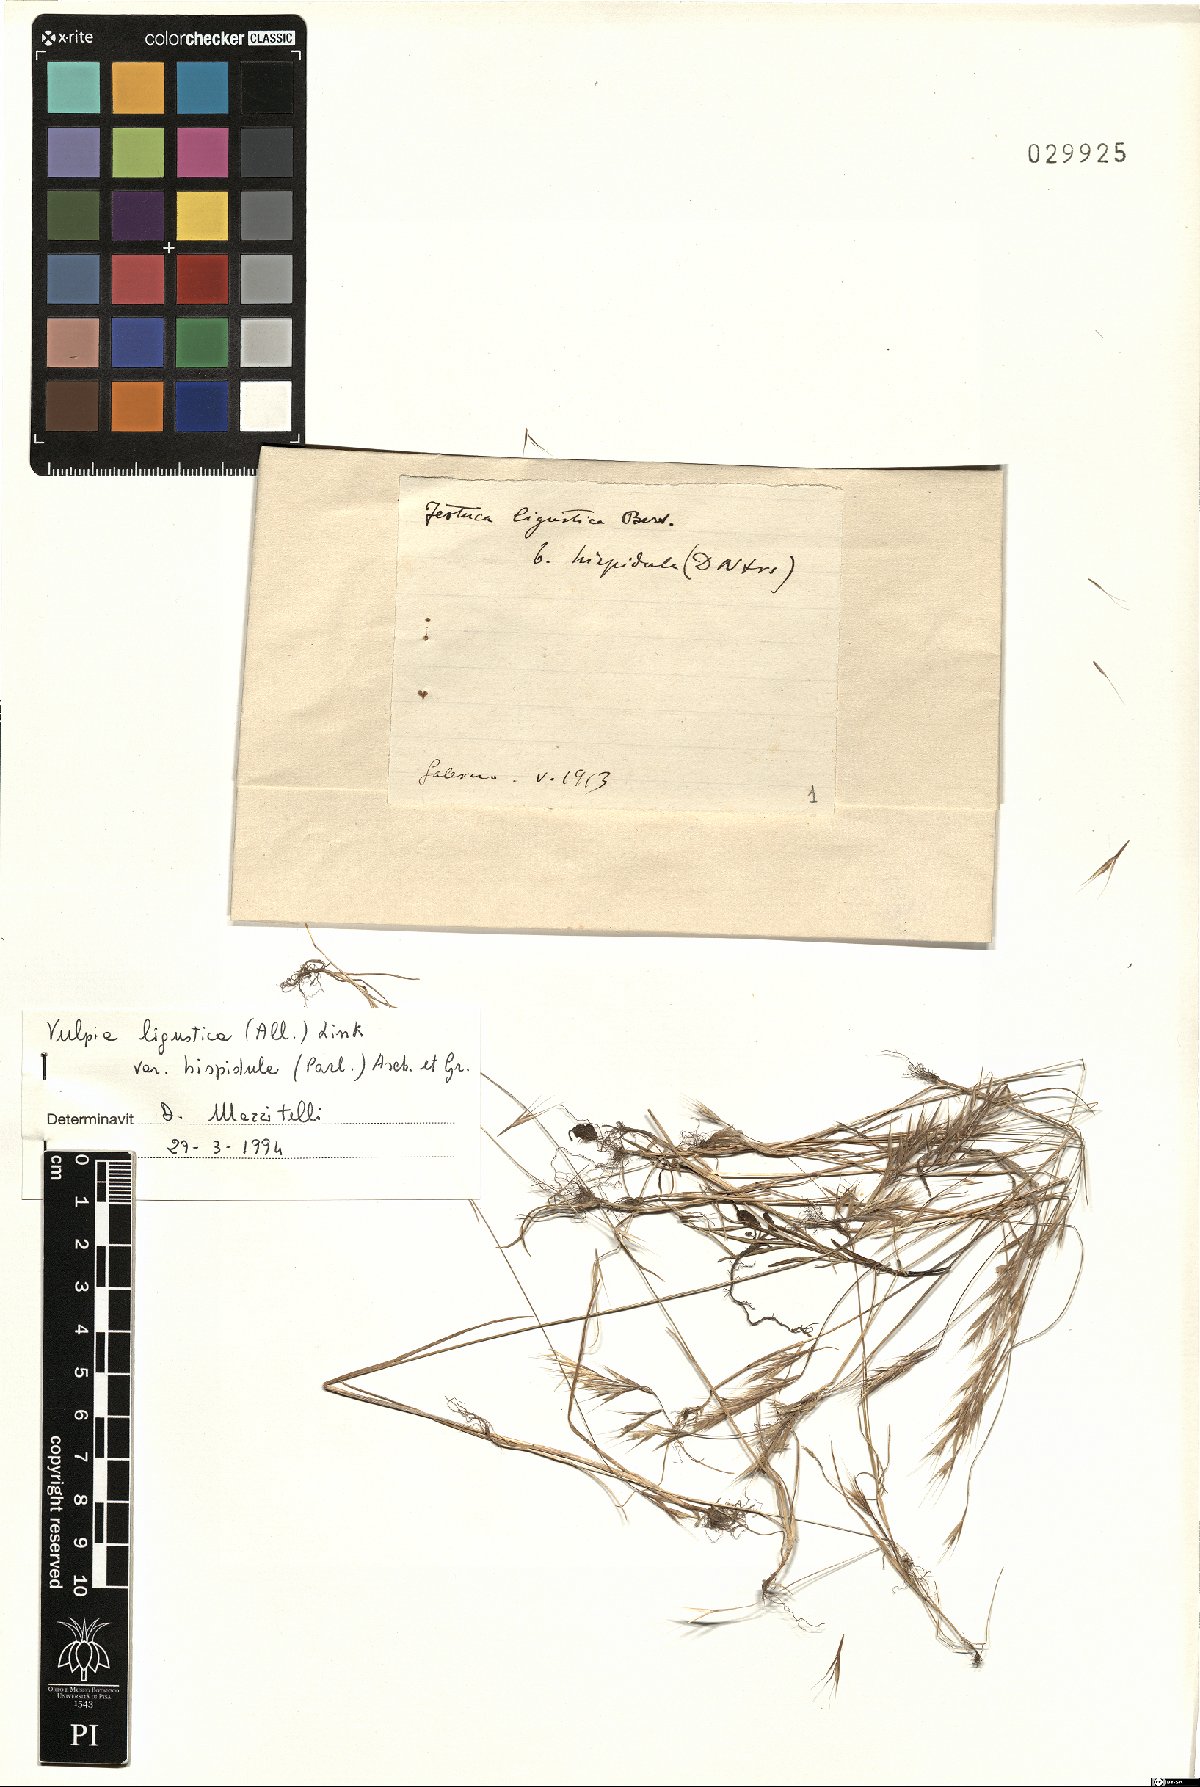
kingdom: Plantae
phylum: Tracheophyta
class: Liliopsida
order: Poales
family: Poaceae
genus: Festuca
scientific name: Festuca ligustica
